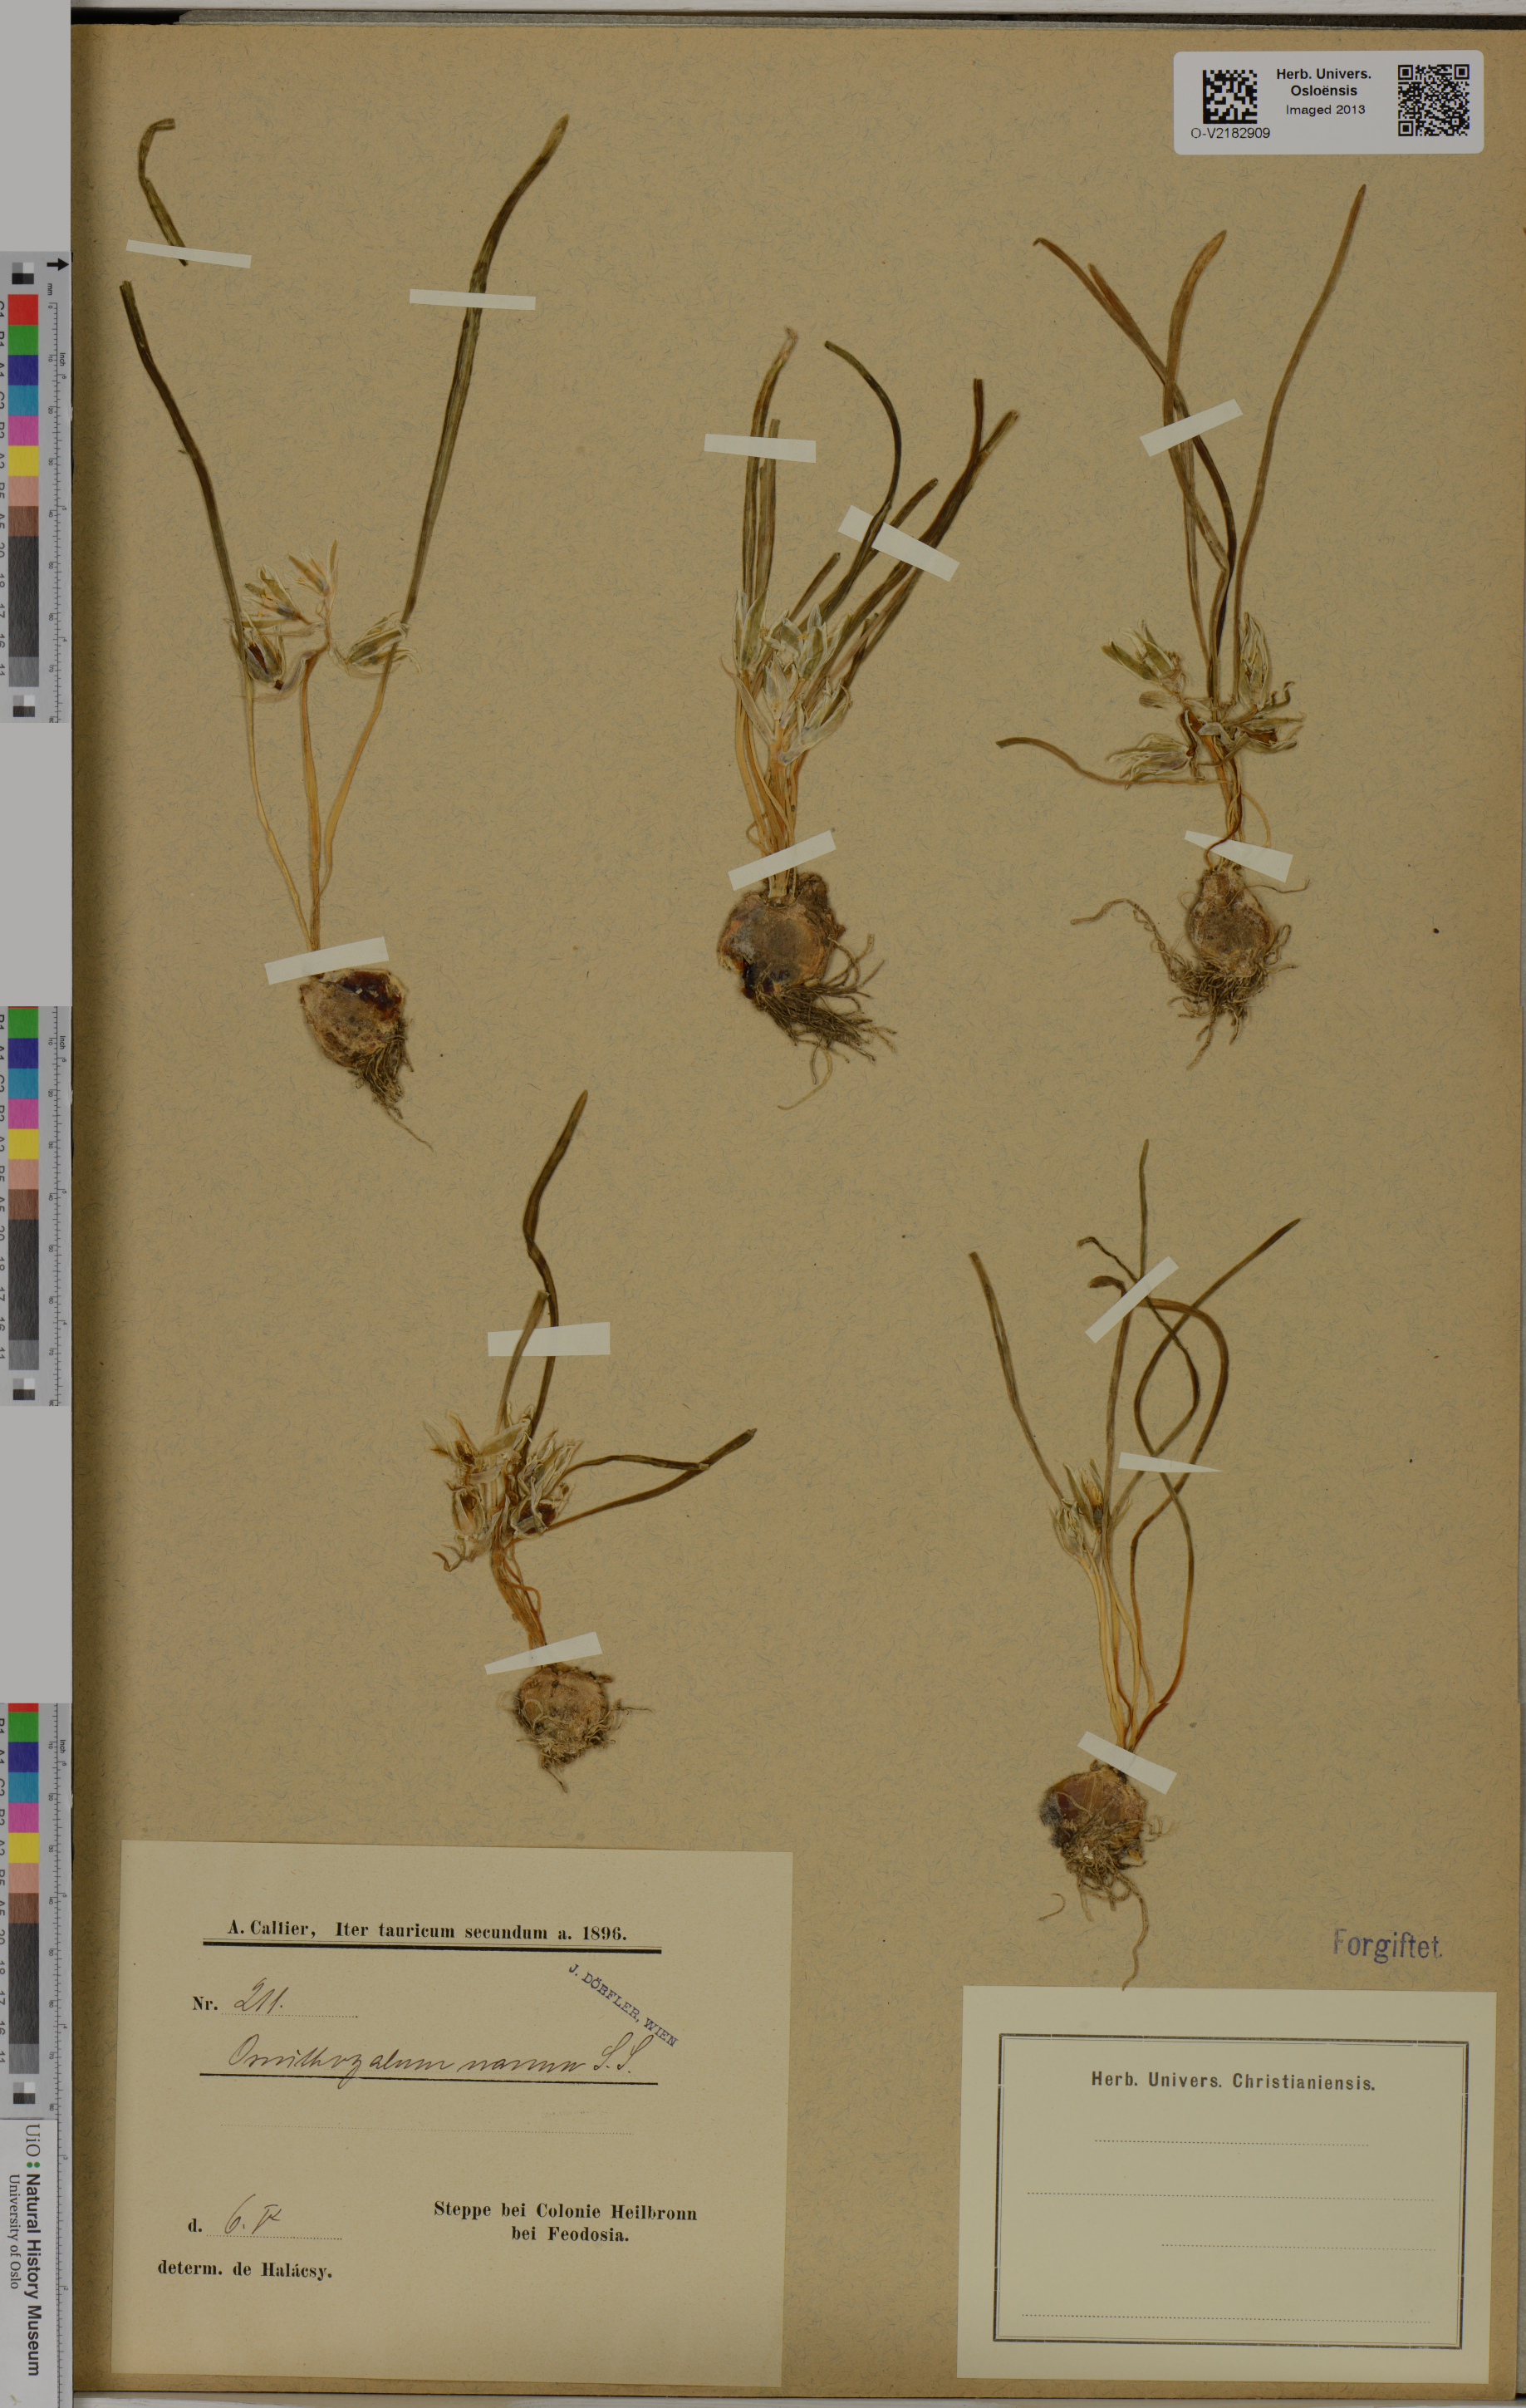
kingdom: Plantae
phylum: Tracheophyta
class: Liliopsida
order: Asparagales
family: Asparagaceae
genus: Ornithogalum
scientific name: Ornithogalum nanum
